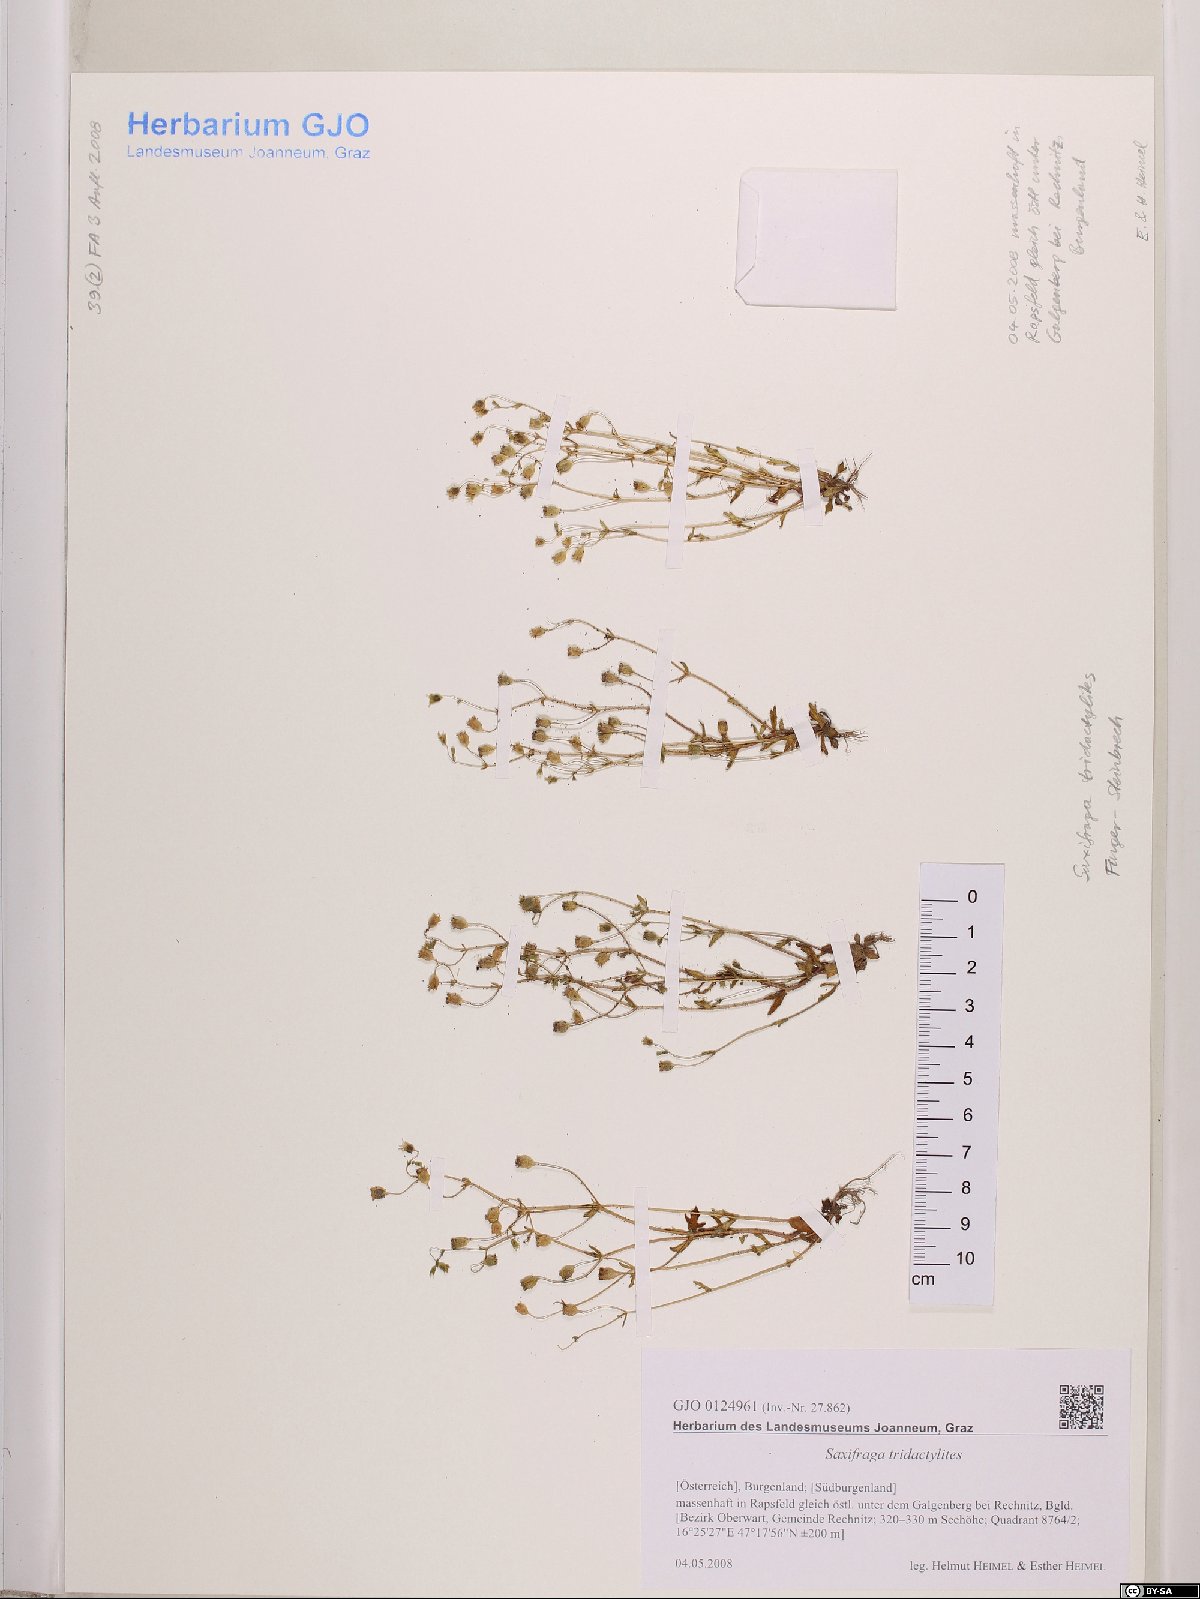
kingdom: Plantae
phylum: Tracheophyta
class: Magnoliopsida
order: Saxifragales
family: Saxifragaceae
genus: Saxifraga
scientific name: Saxifraga tridactylites
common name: Rue-leaved saxifrage
